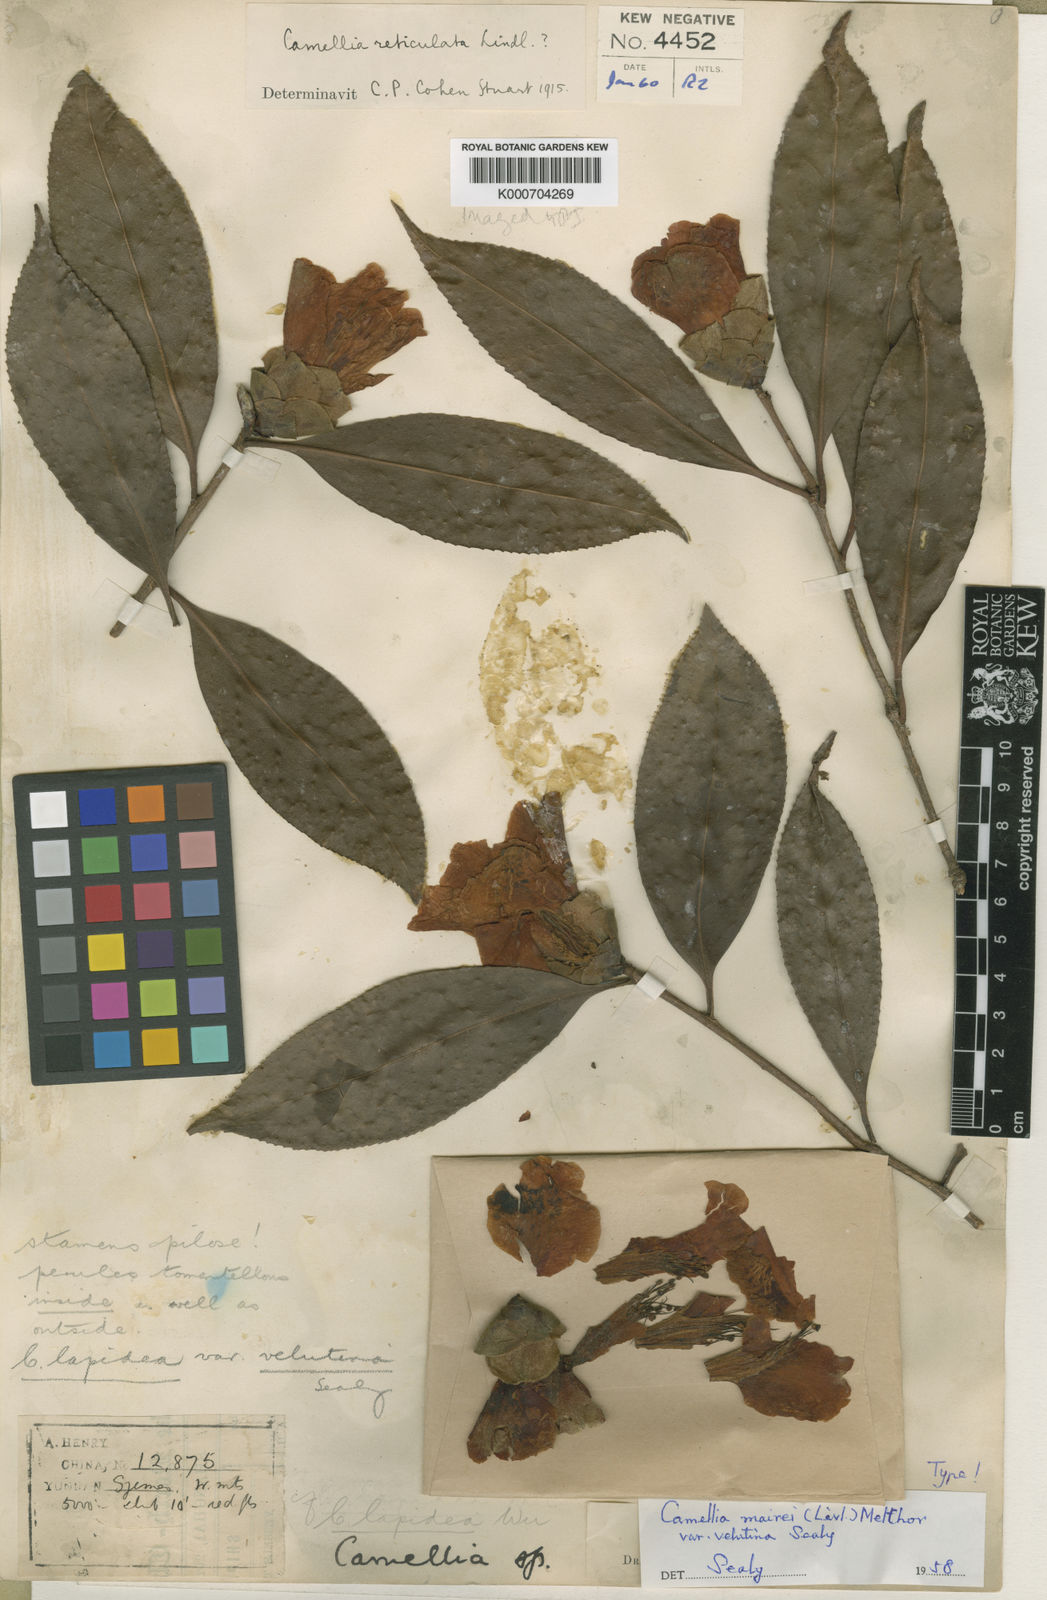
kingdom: Plantae
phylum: Tracheophyta
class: Magnoliopsida
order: Ericales
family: Theaceae
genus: Camellia
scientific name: Camellia mairei
